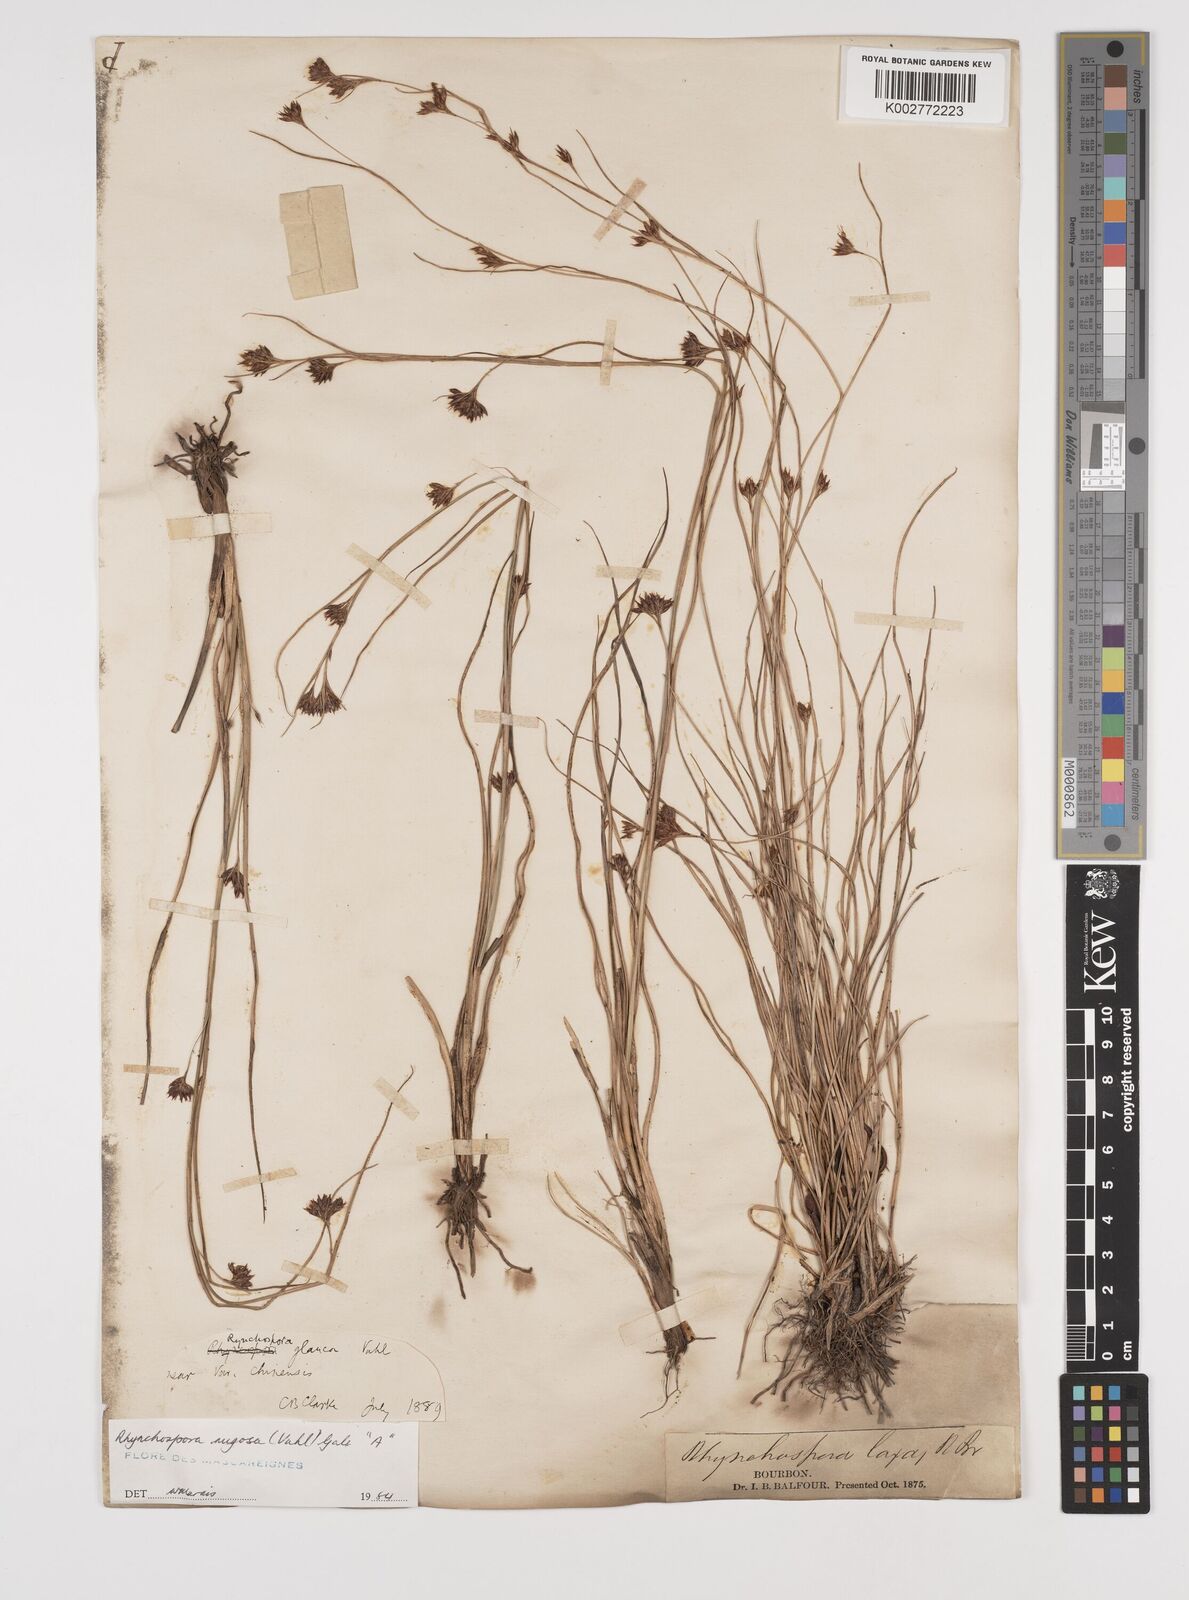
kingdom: Plantae
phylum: Tracheophyta
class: Liliopsida
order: Poales
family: Cyperaceae
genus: Rhynchospora
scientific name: Rhynchospora rugosa
